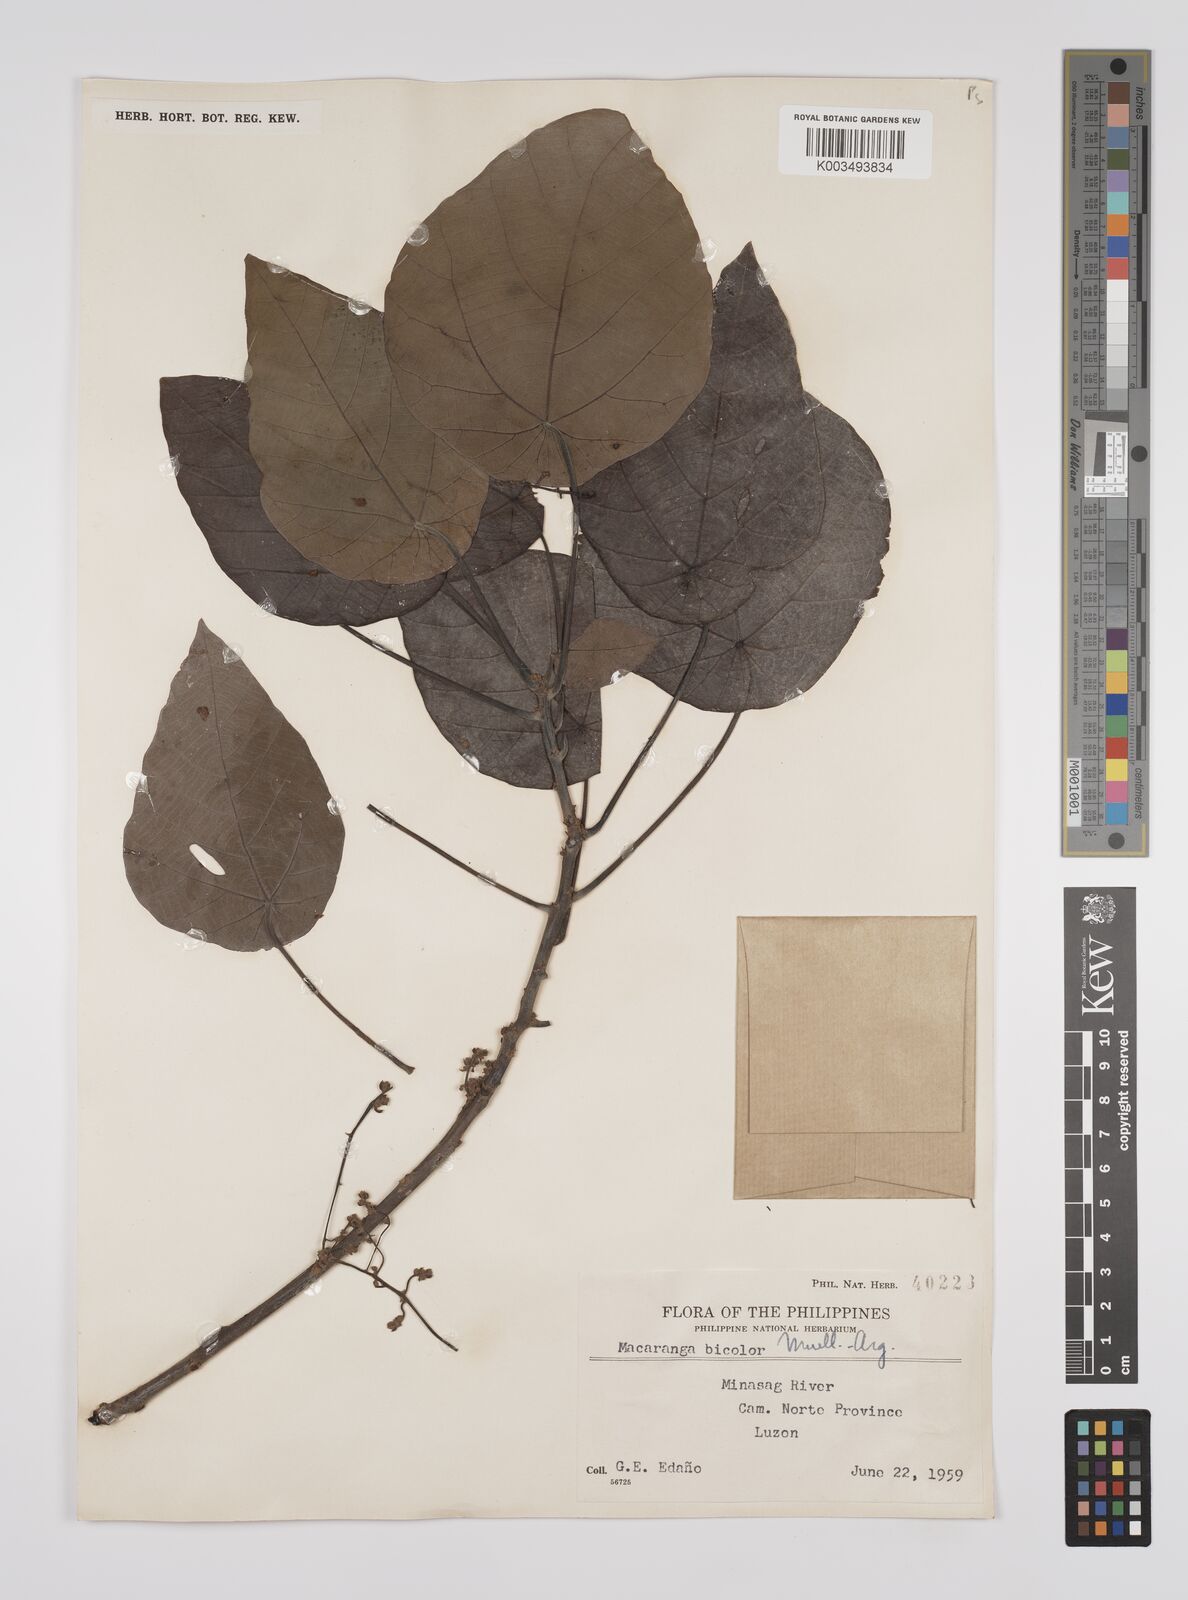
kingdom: Plantae
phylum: Tracheophyta
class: Magnoliopsida
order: Malpighiales
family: Euphorbiaceae
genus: Macaranga
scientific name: Macaranga bicolor
